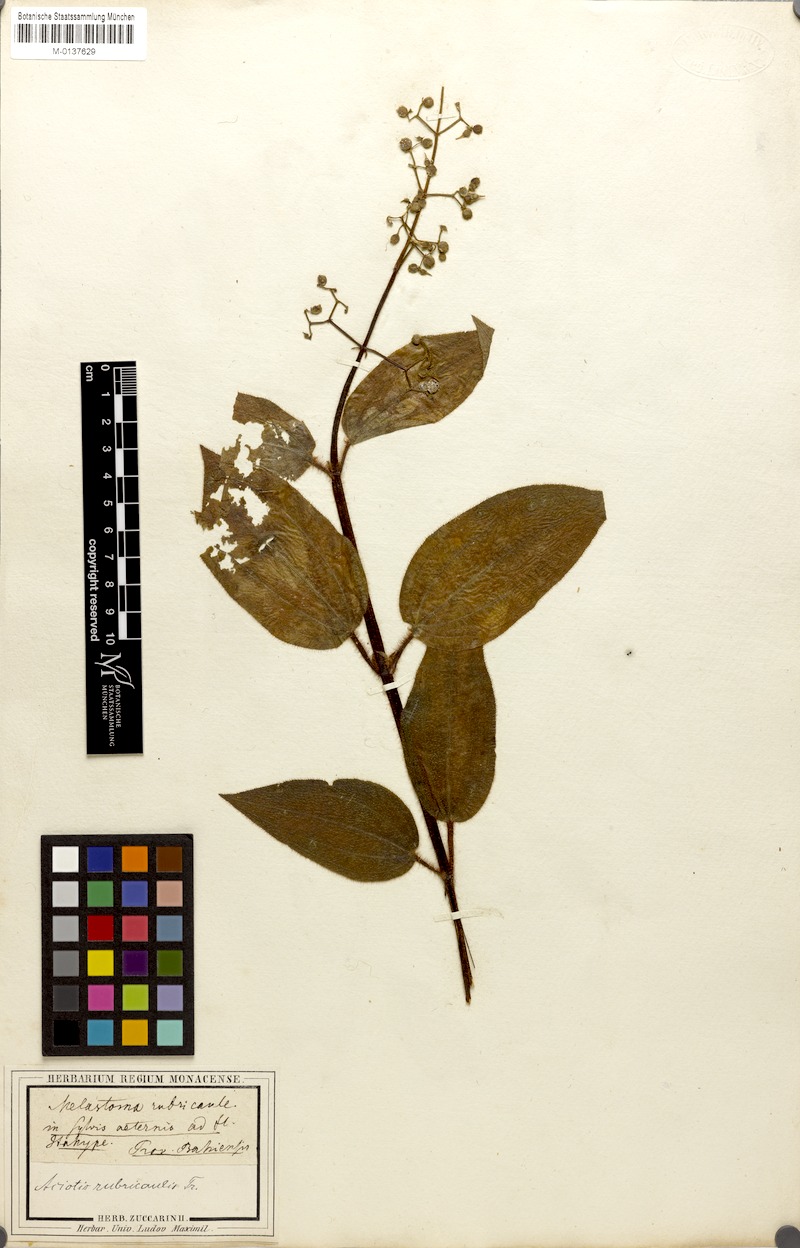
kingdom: Plantae
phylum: Tracheophyta
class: Magnoliopsida
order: Myrtales
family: Melastomataceae
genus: Aciotis
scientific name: Aciotis rubricaulis
